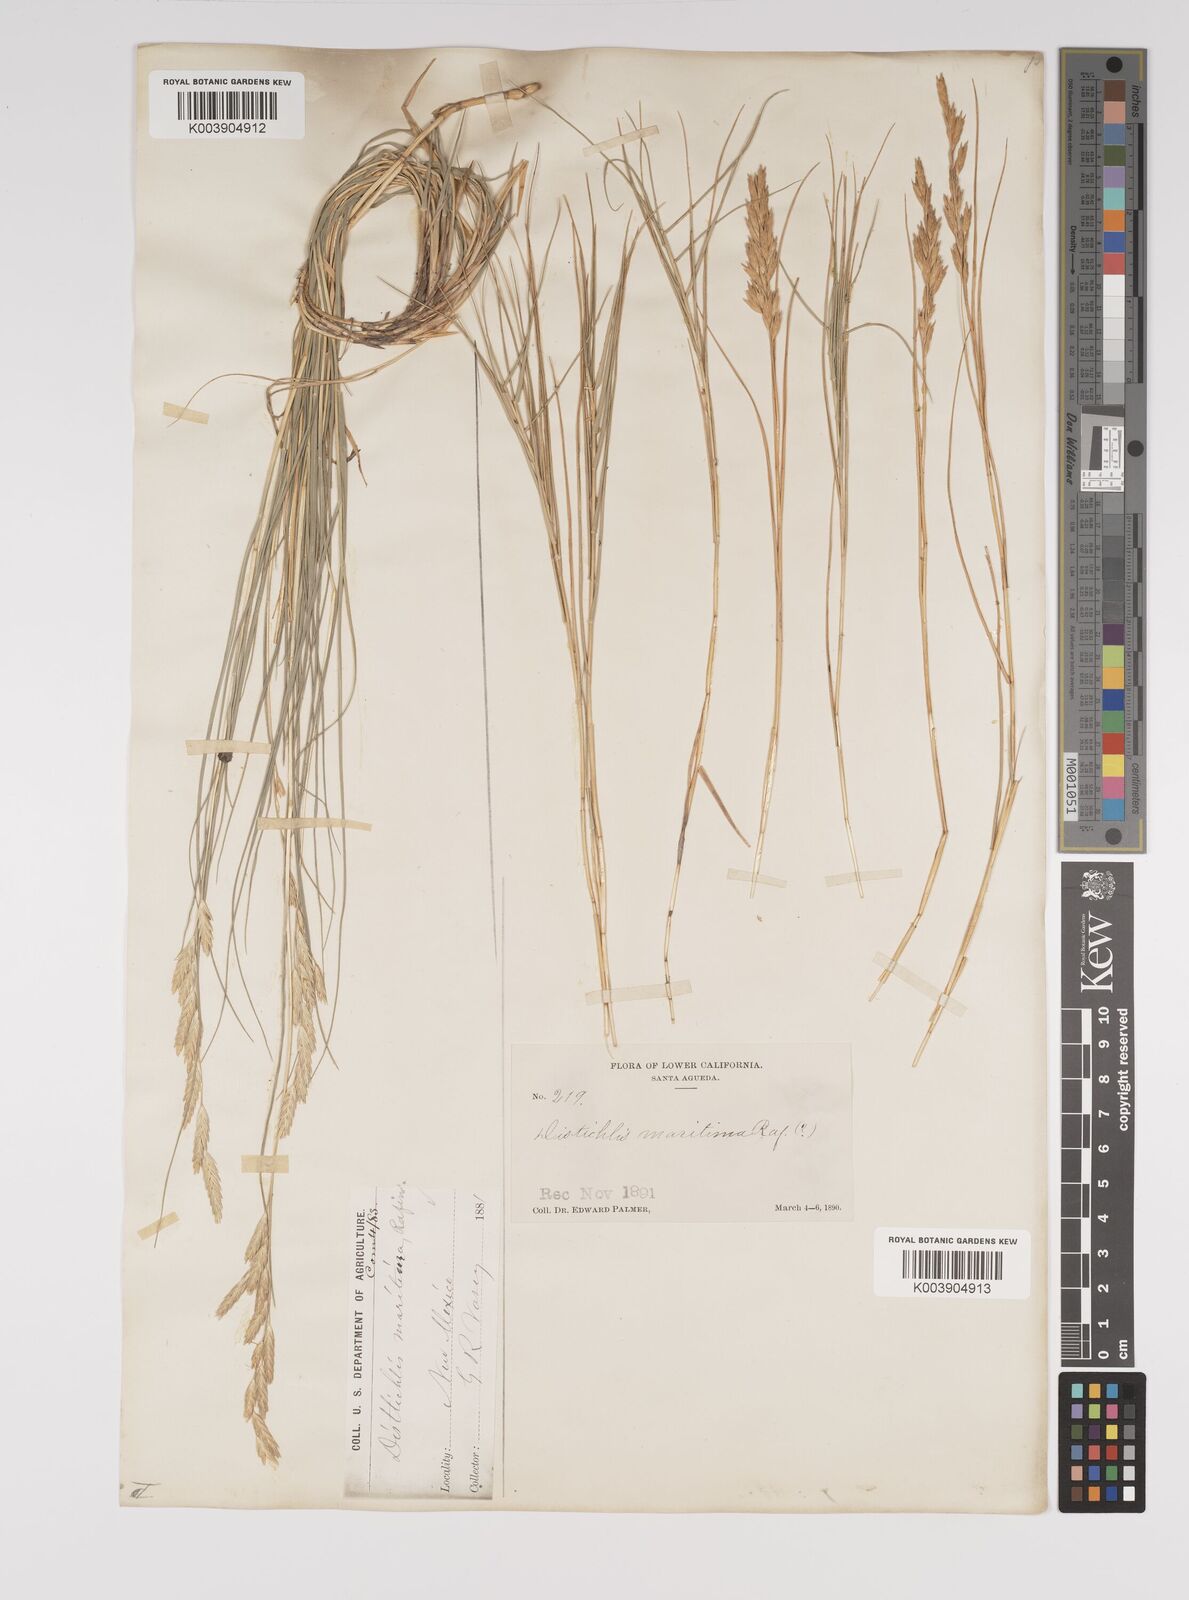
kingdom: Plantae
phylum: Tracheophyta
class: Liliopsida
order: Poales
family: Poaceae
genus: Distichlis
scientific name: Distichlis spicata
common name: Saltgrass
